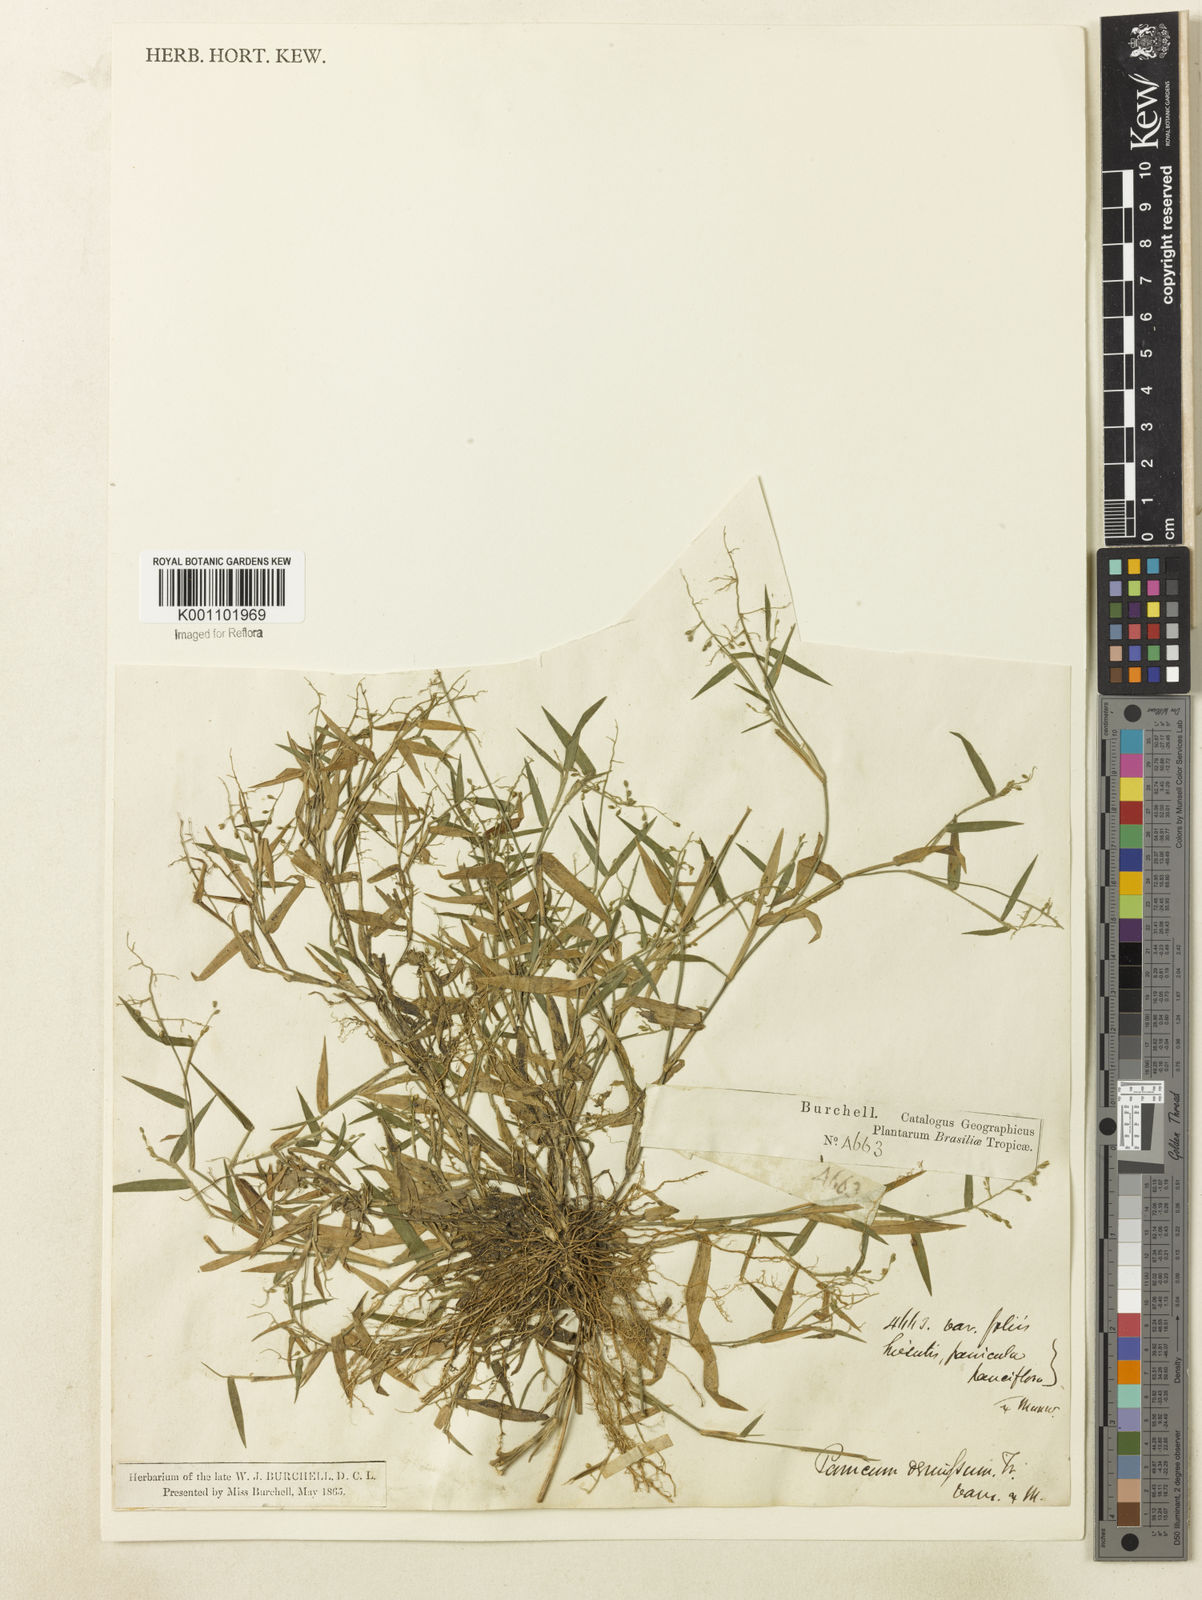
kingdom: Plantae
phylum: Tracheophyta
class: Liliopsida
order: Poales
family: Poaceae
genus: Dichanthelium
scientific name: Dichanthelium sabulorum
